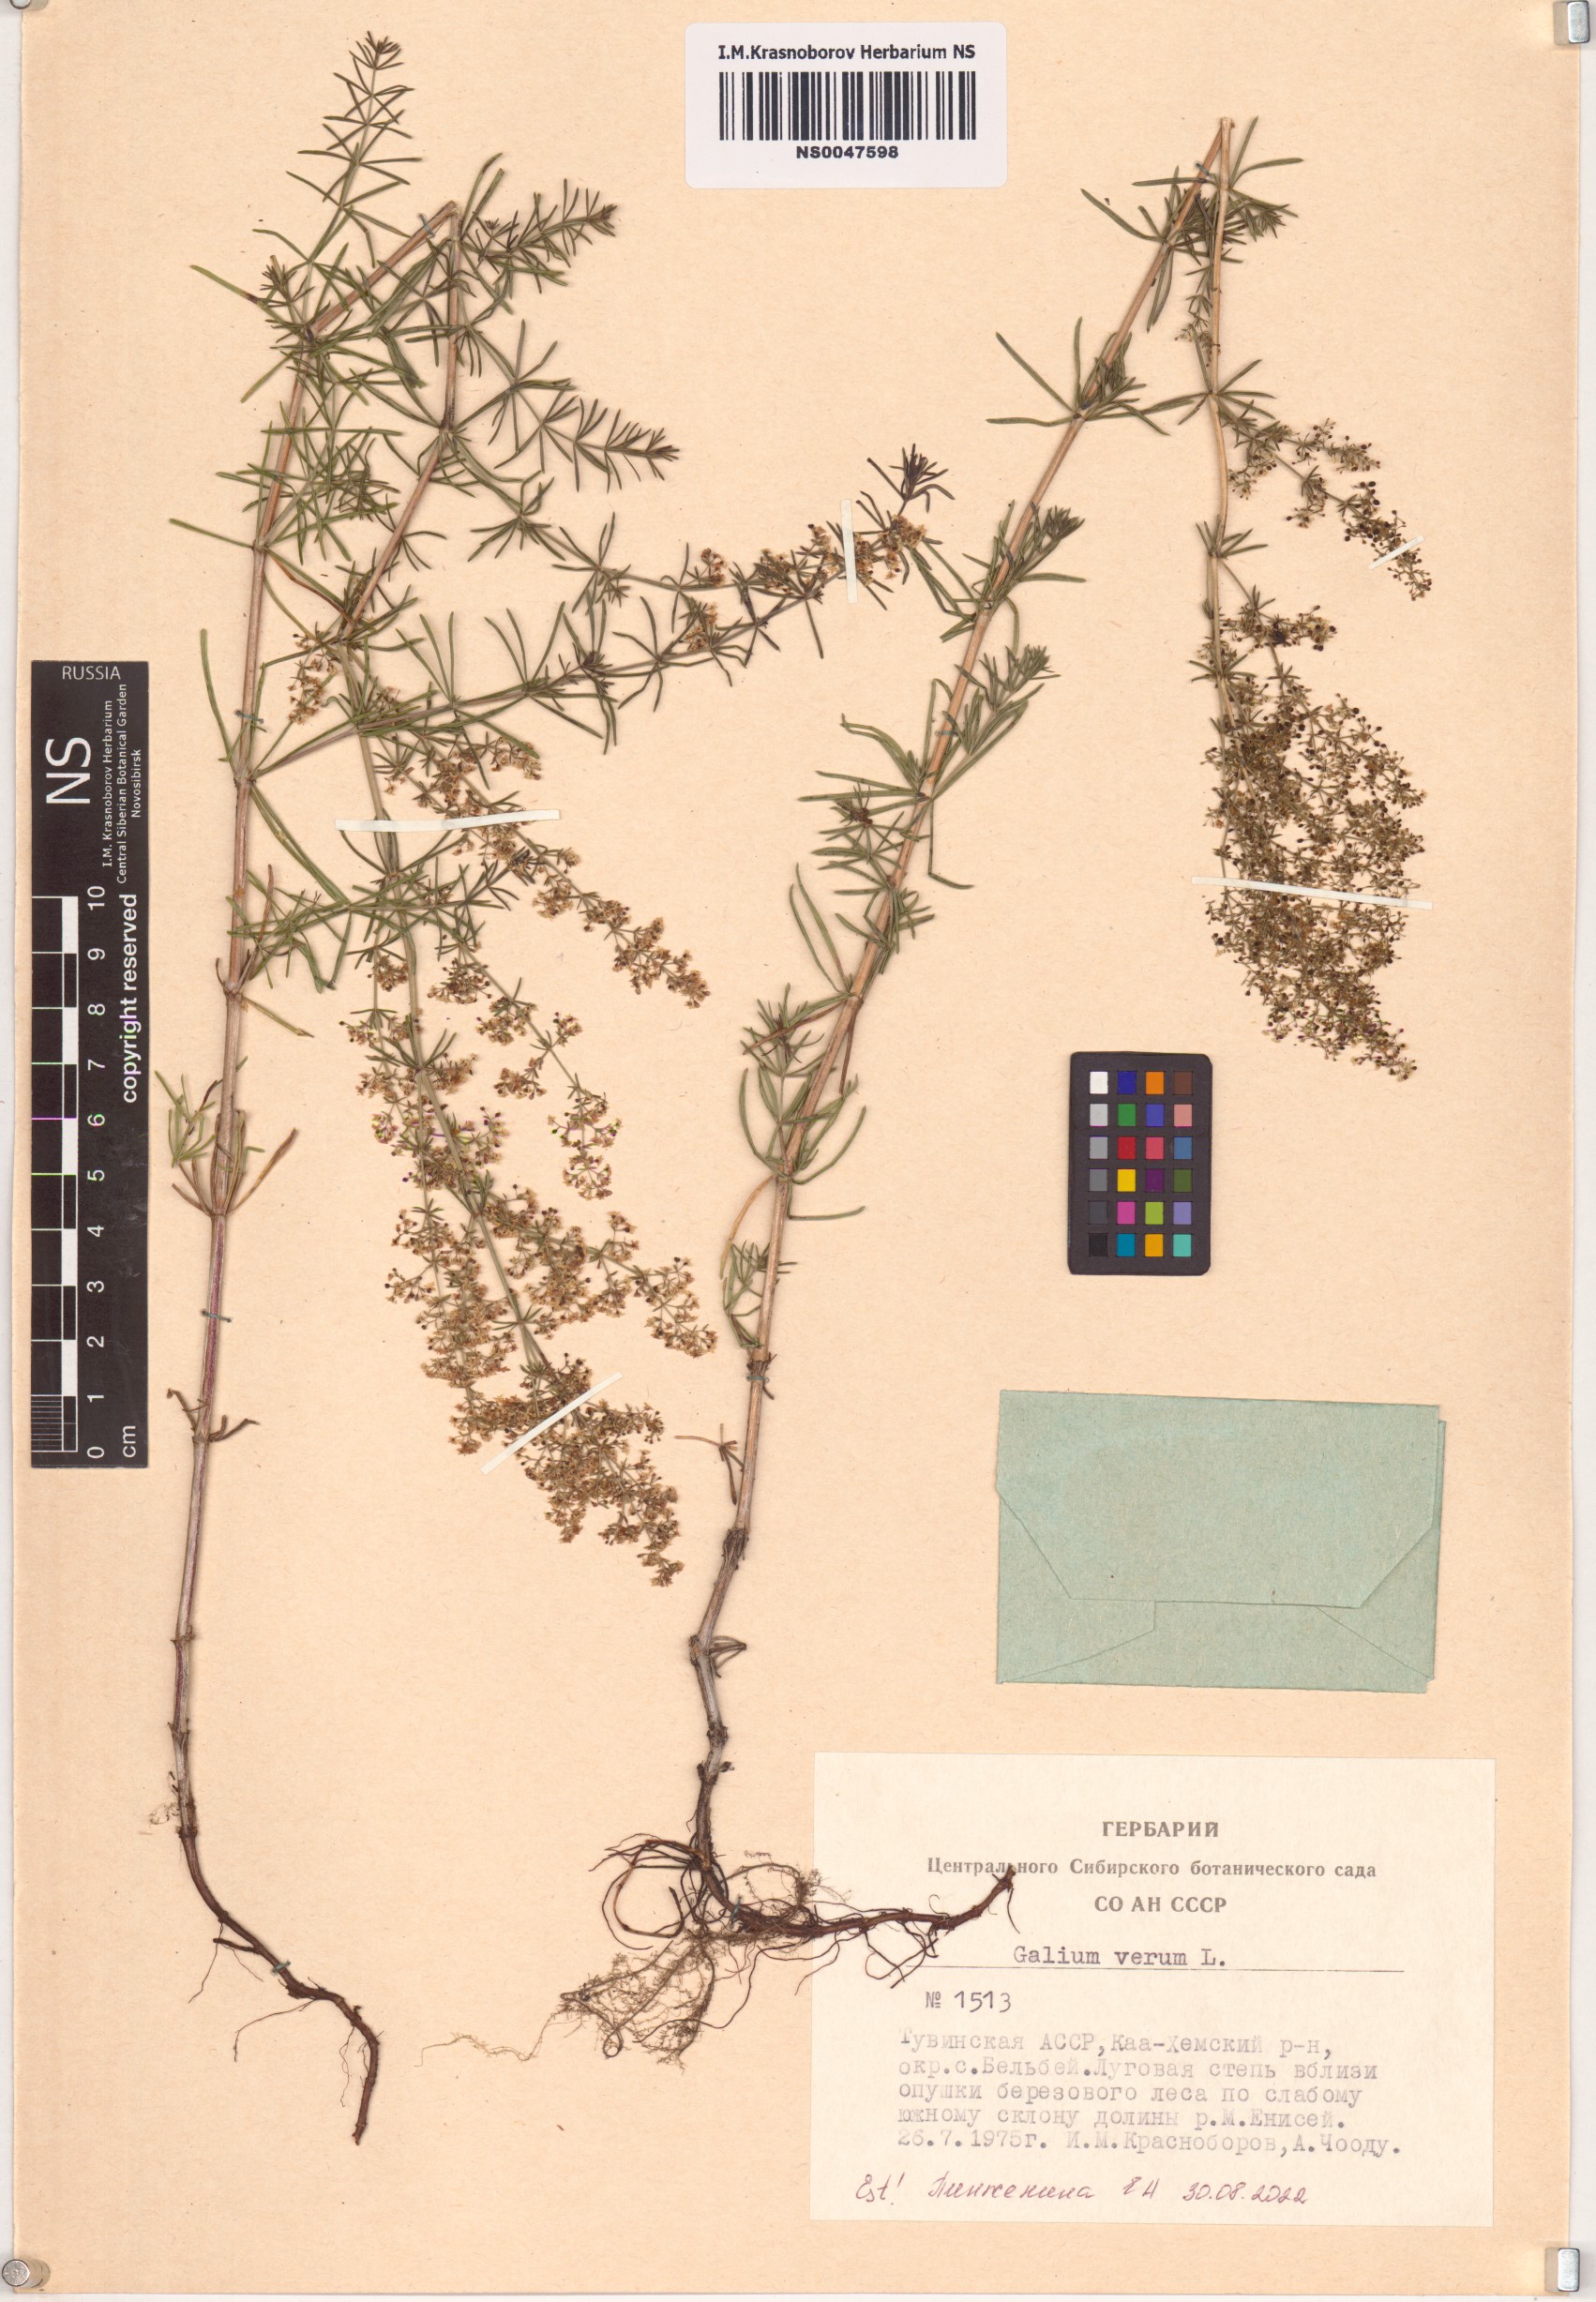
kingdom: Plantae
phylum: Tracheophyta
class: Magnoliopsida
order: Gentianales
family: Rubiaceae
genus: Galium
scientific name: Galium verum
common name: Lady's bedstraw
